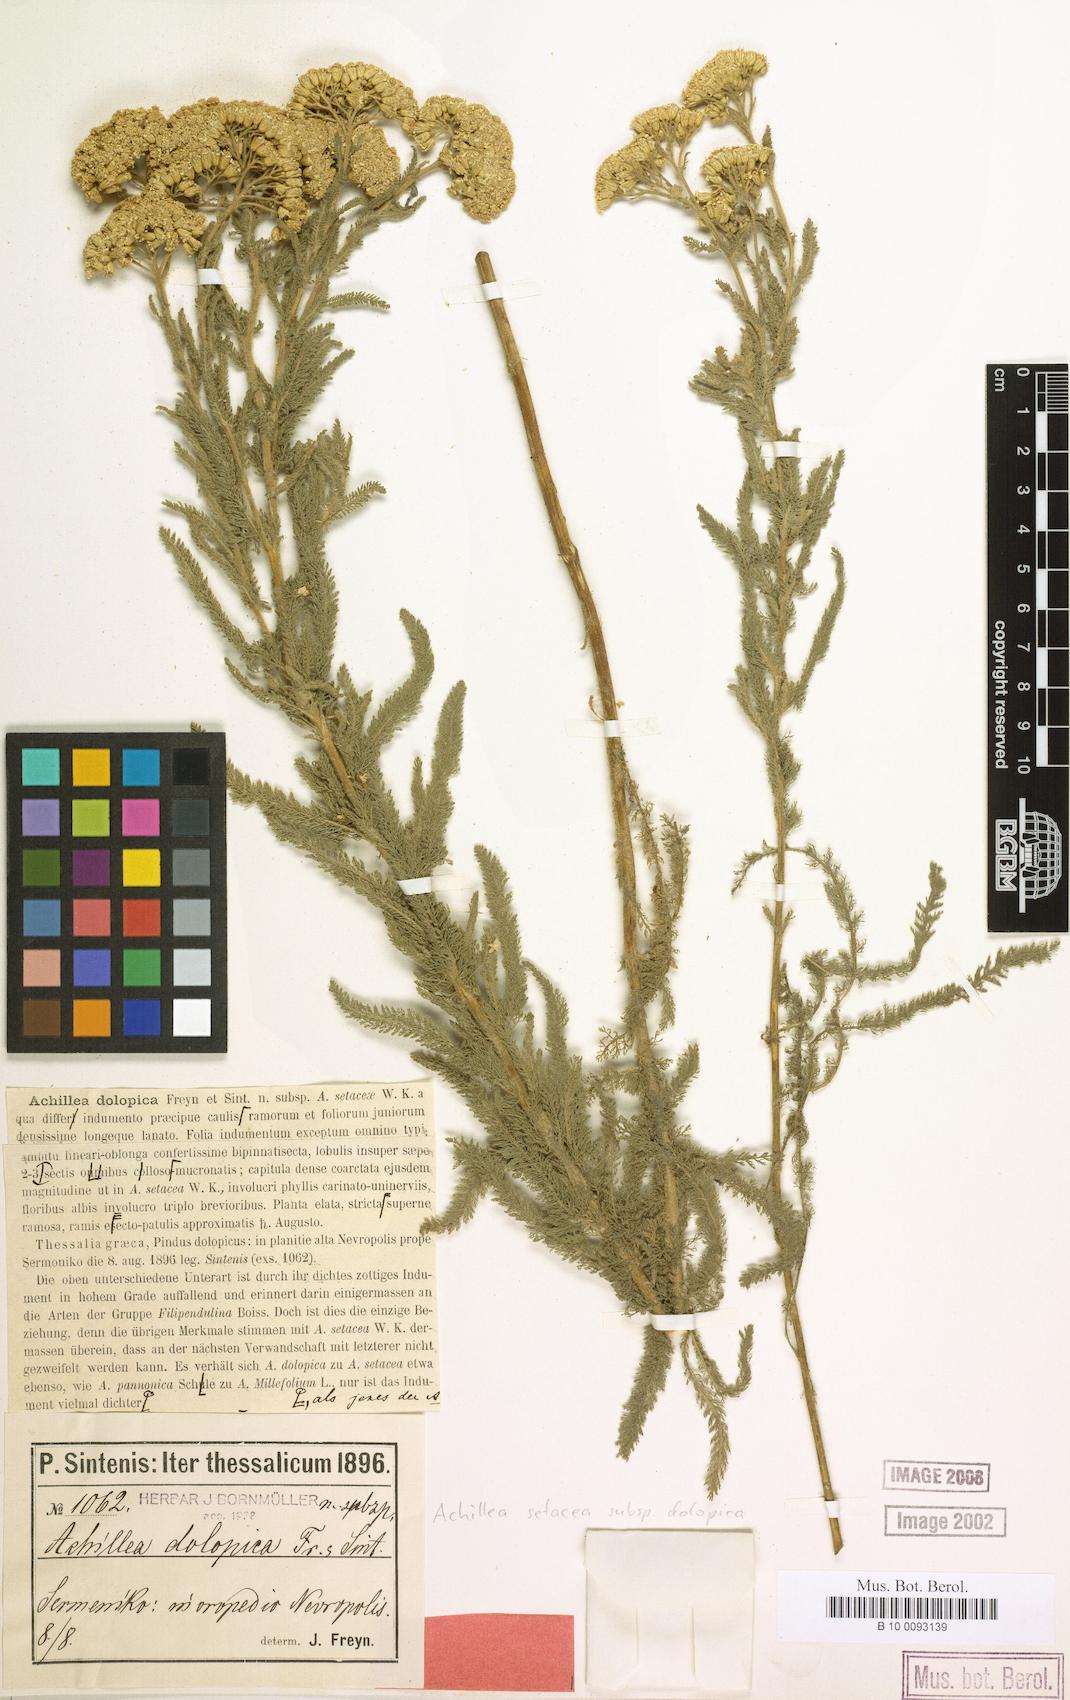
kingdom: Plantae
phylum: Tracheophyta
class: Magnoliopsida
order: Asterales
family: Asteraceae
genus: Achillea
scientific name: Achillea setacea
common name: Bristly yarrow
